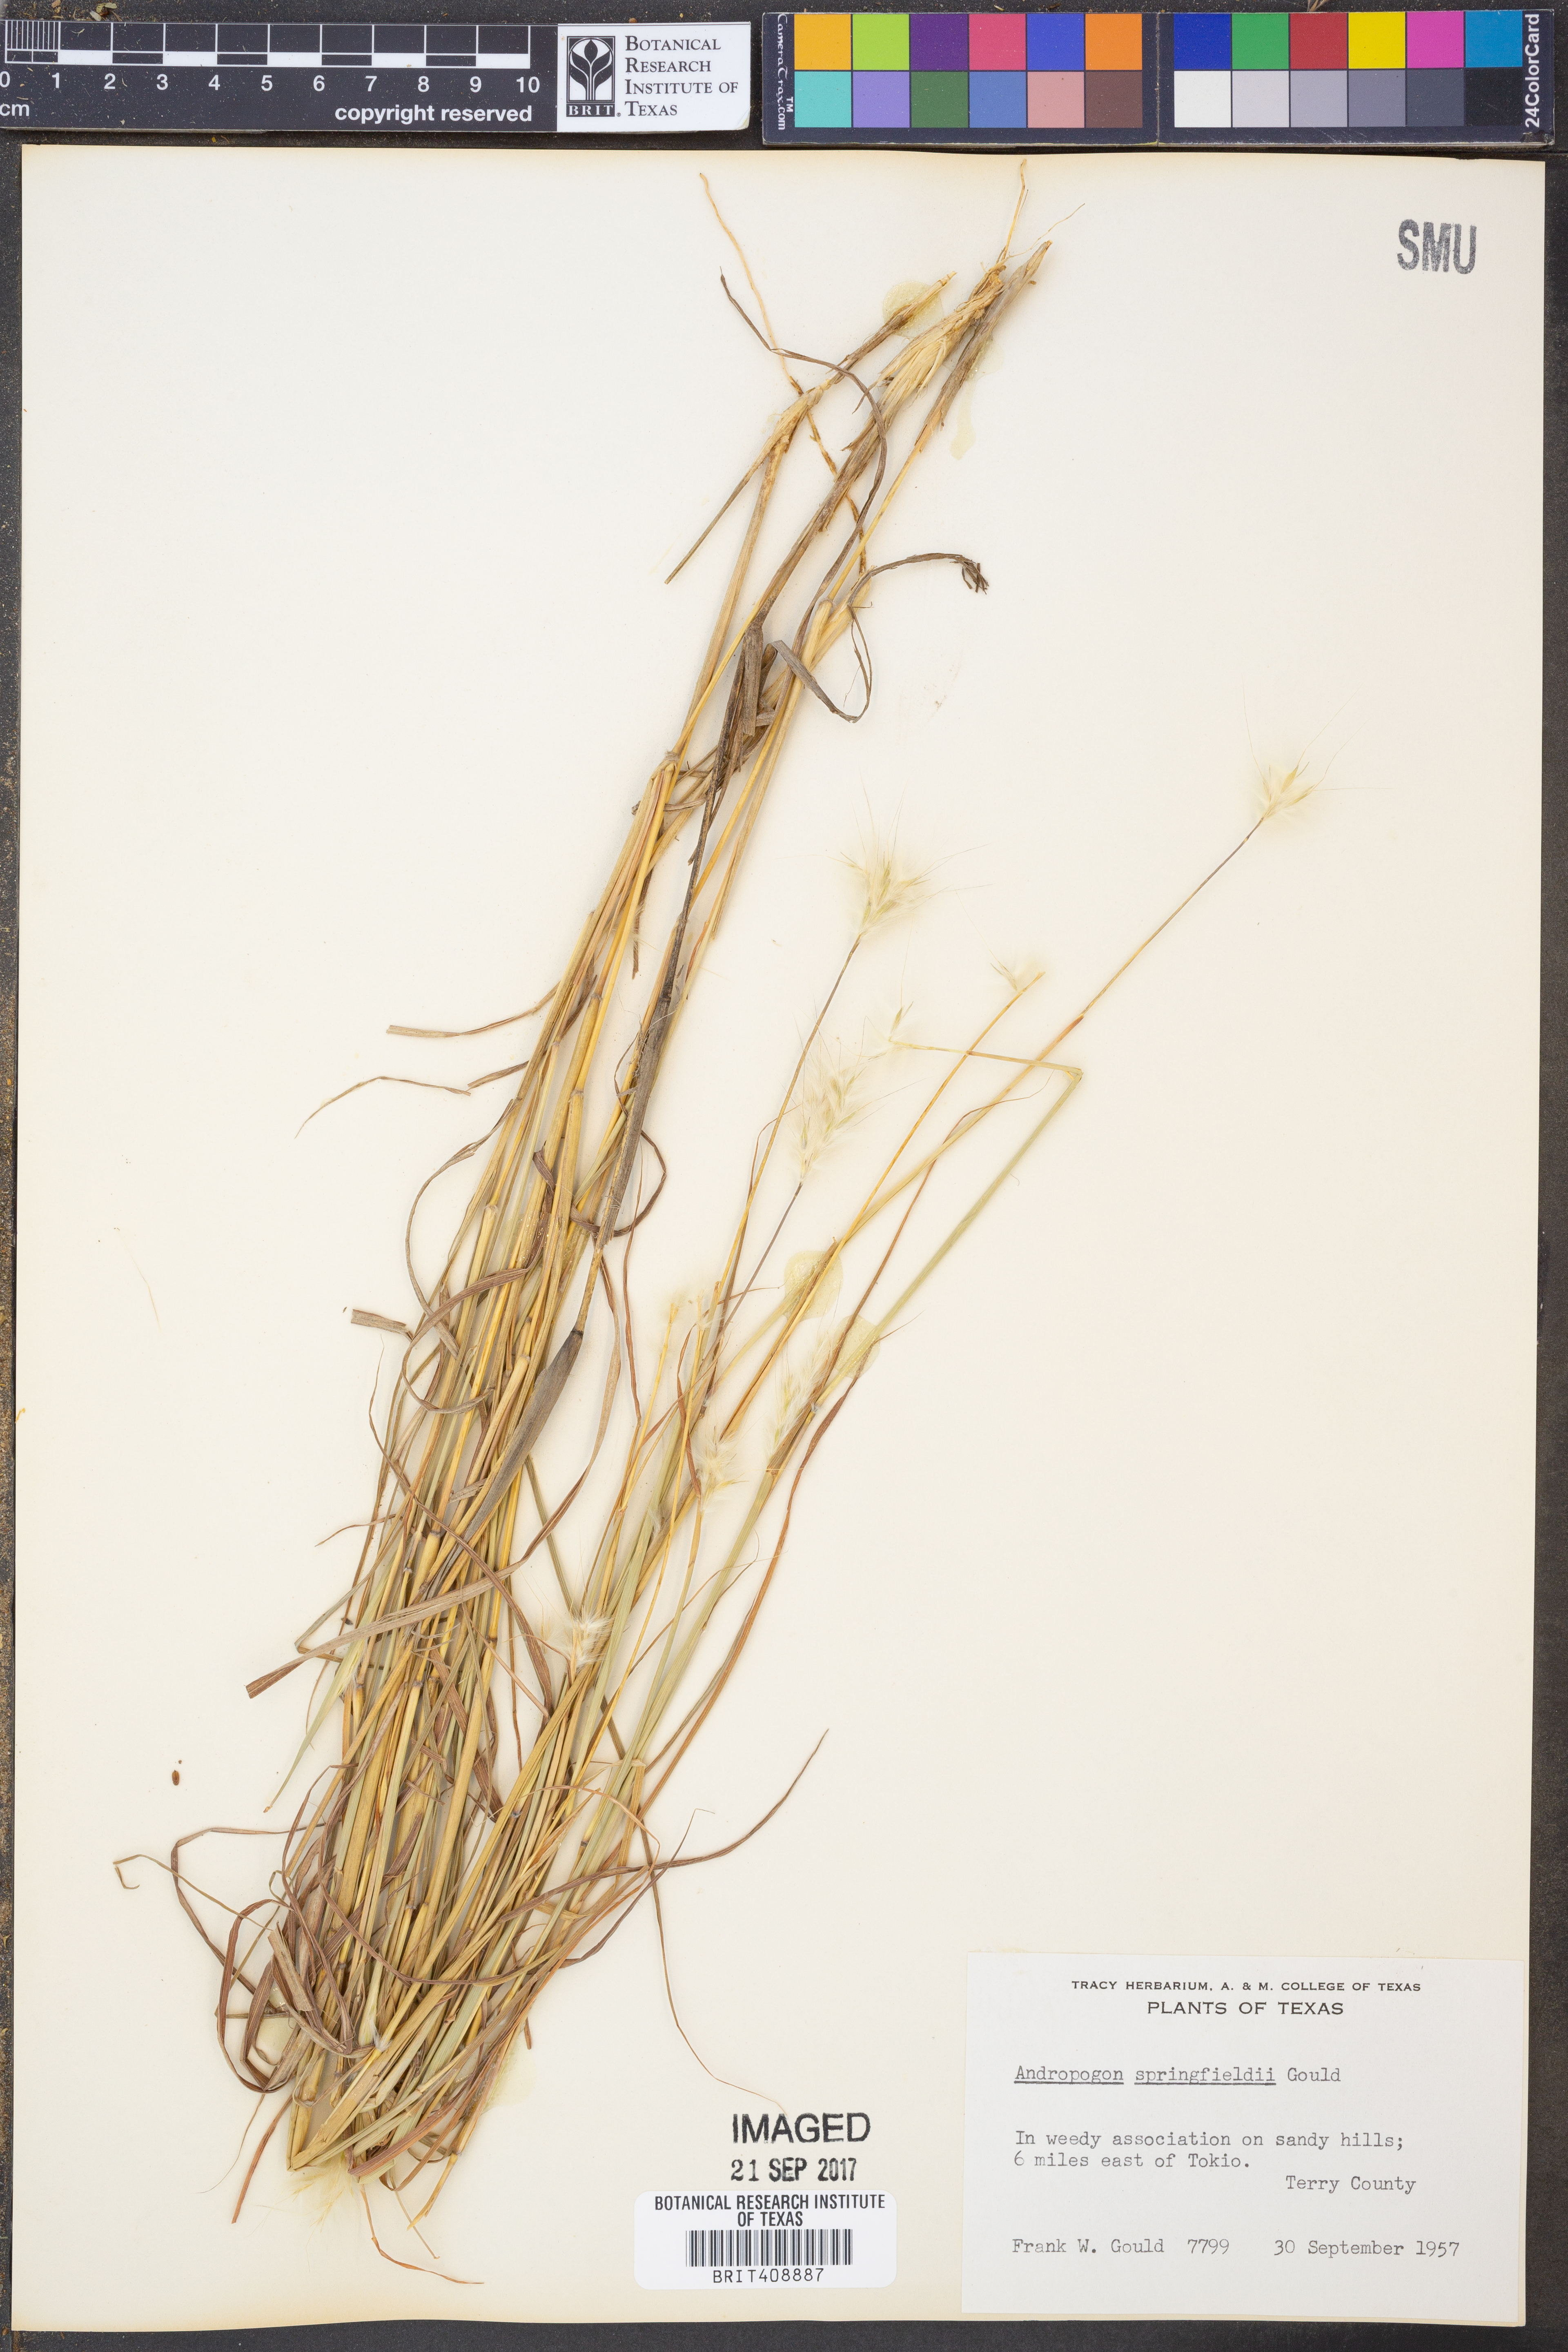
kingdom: Plantae
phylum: Tracheophyta
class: Liliopsida
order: Poales
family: Poaceae
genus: Bothriochloa
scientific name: Bothriochloa springfieldii
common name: Springfield bluestem
